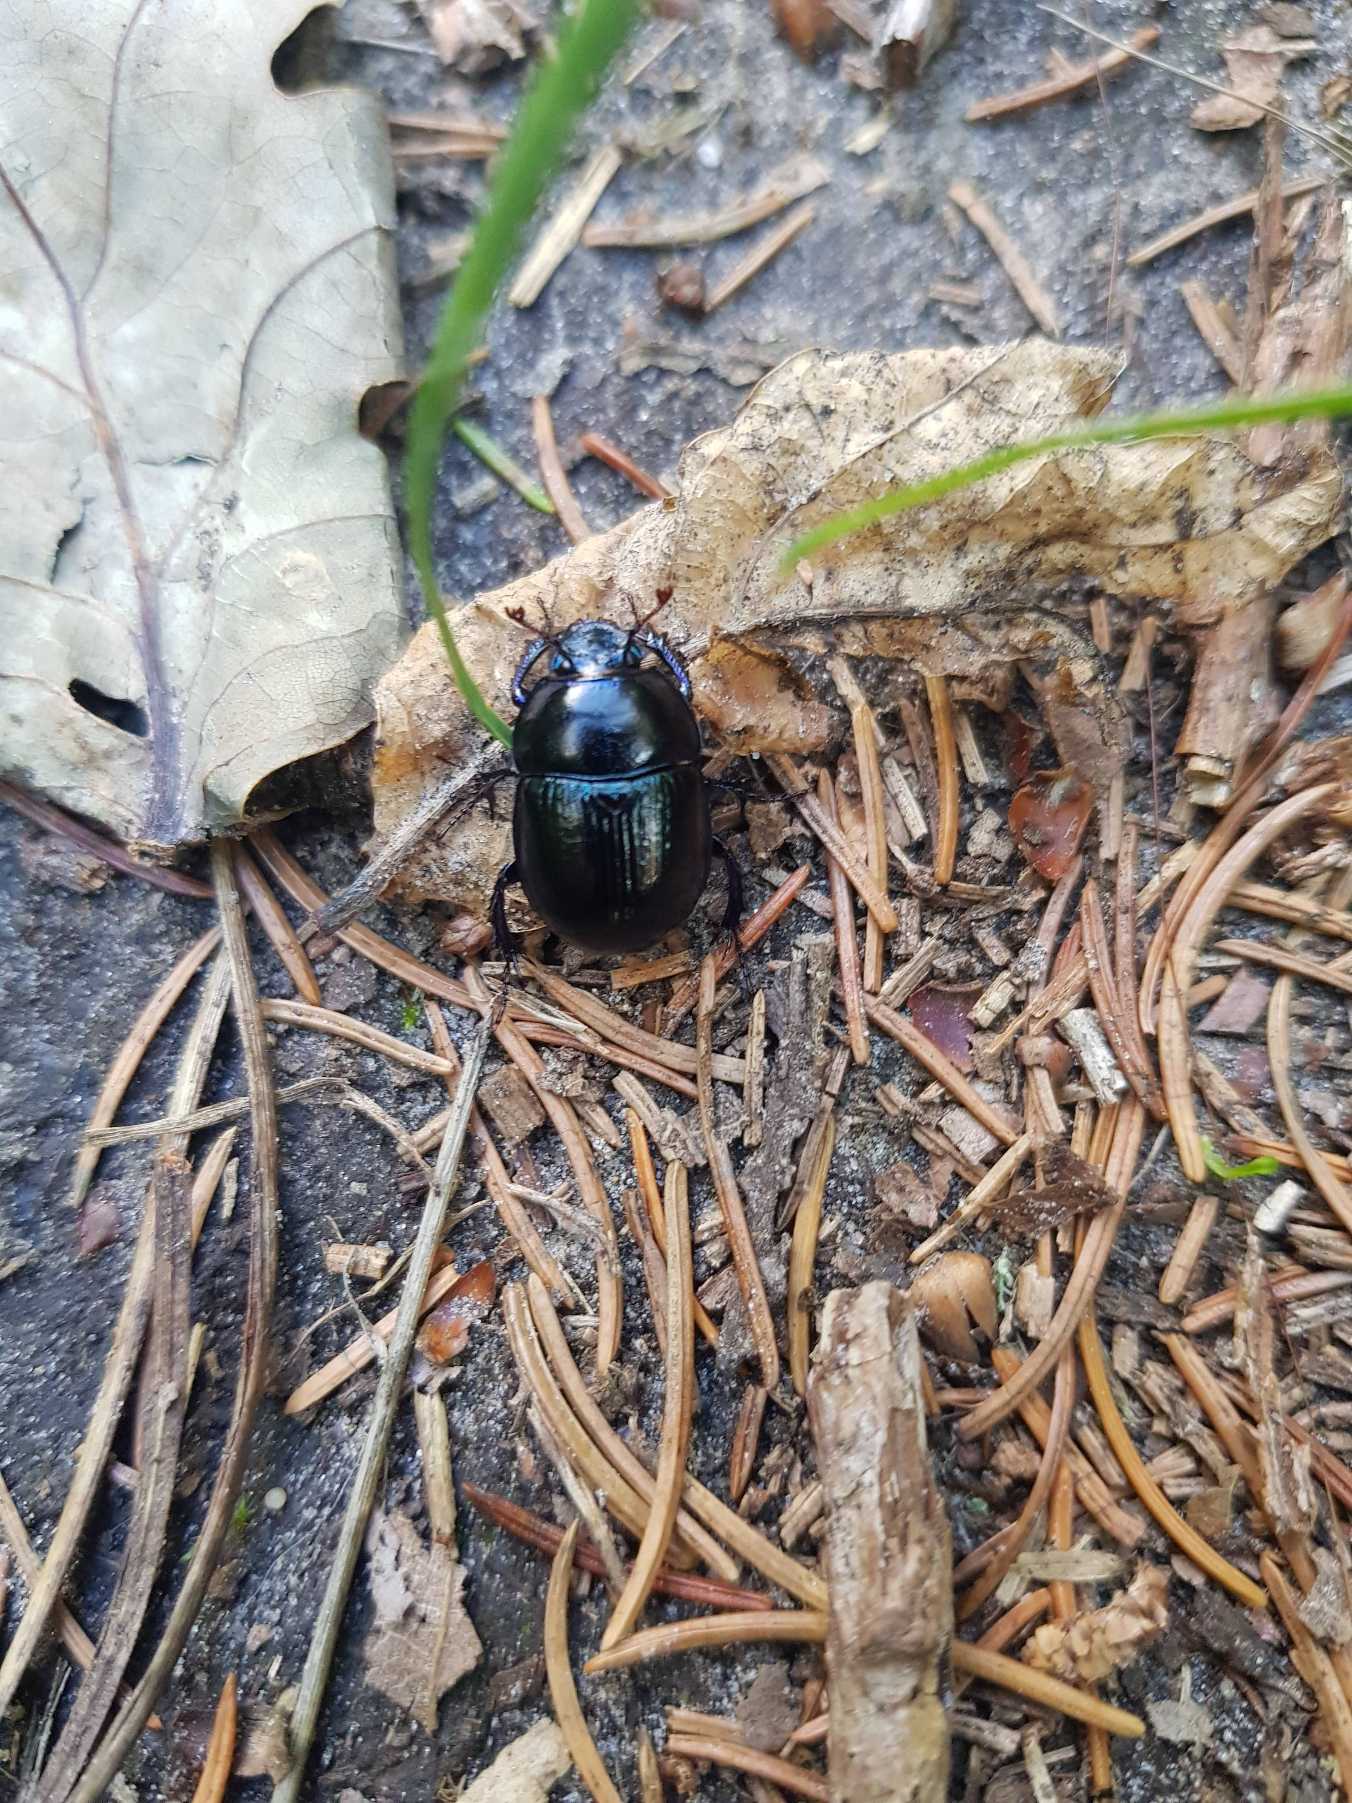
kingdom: Animalia
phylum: Arthropoda
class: Insecta
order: Coleoptera
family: Geotrupidae
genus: Anoplotrupes
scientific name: Anoplotrupes stercorosus
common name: Skovskarnbasse
